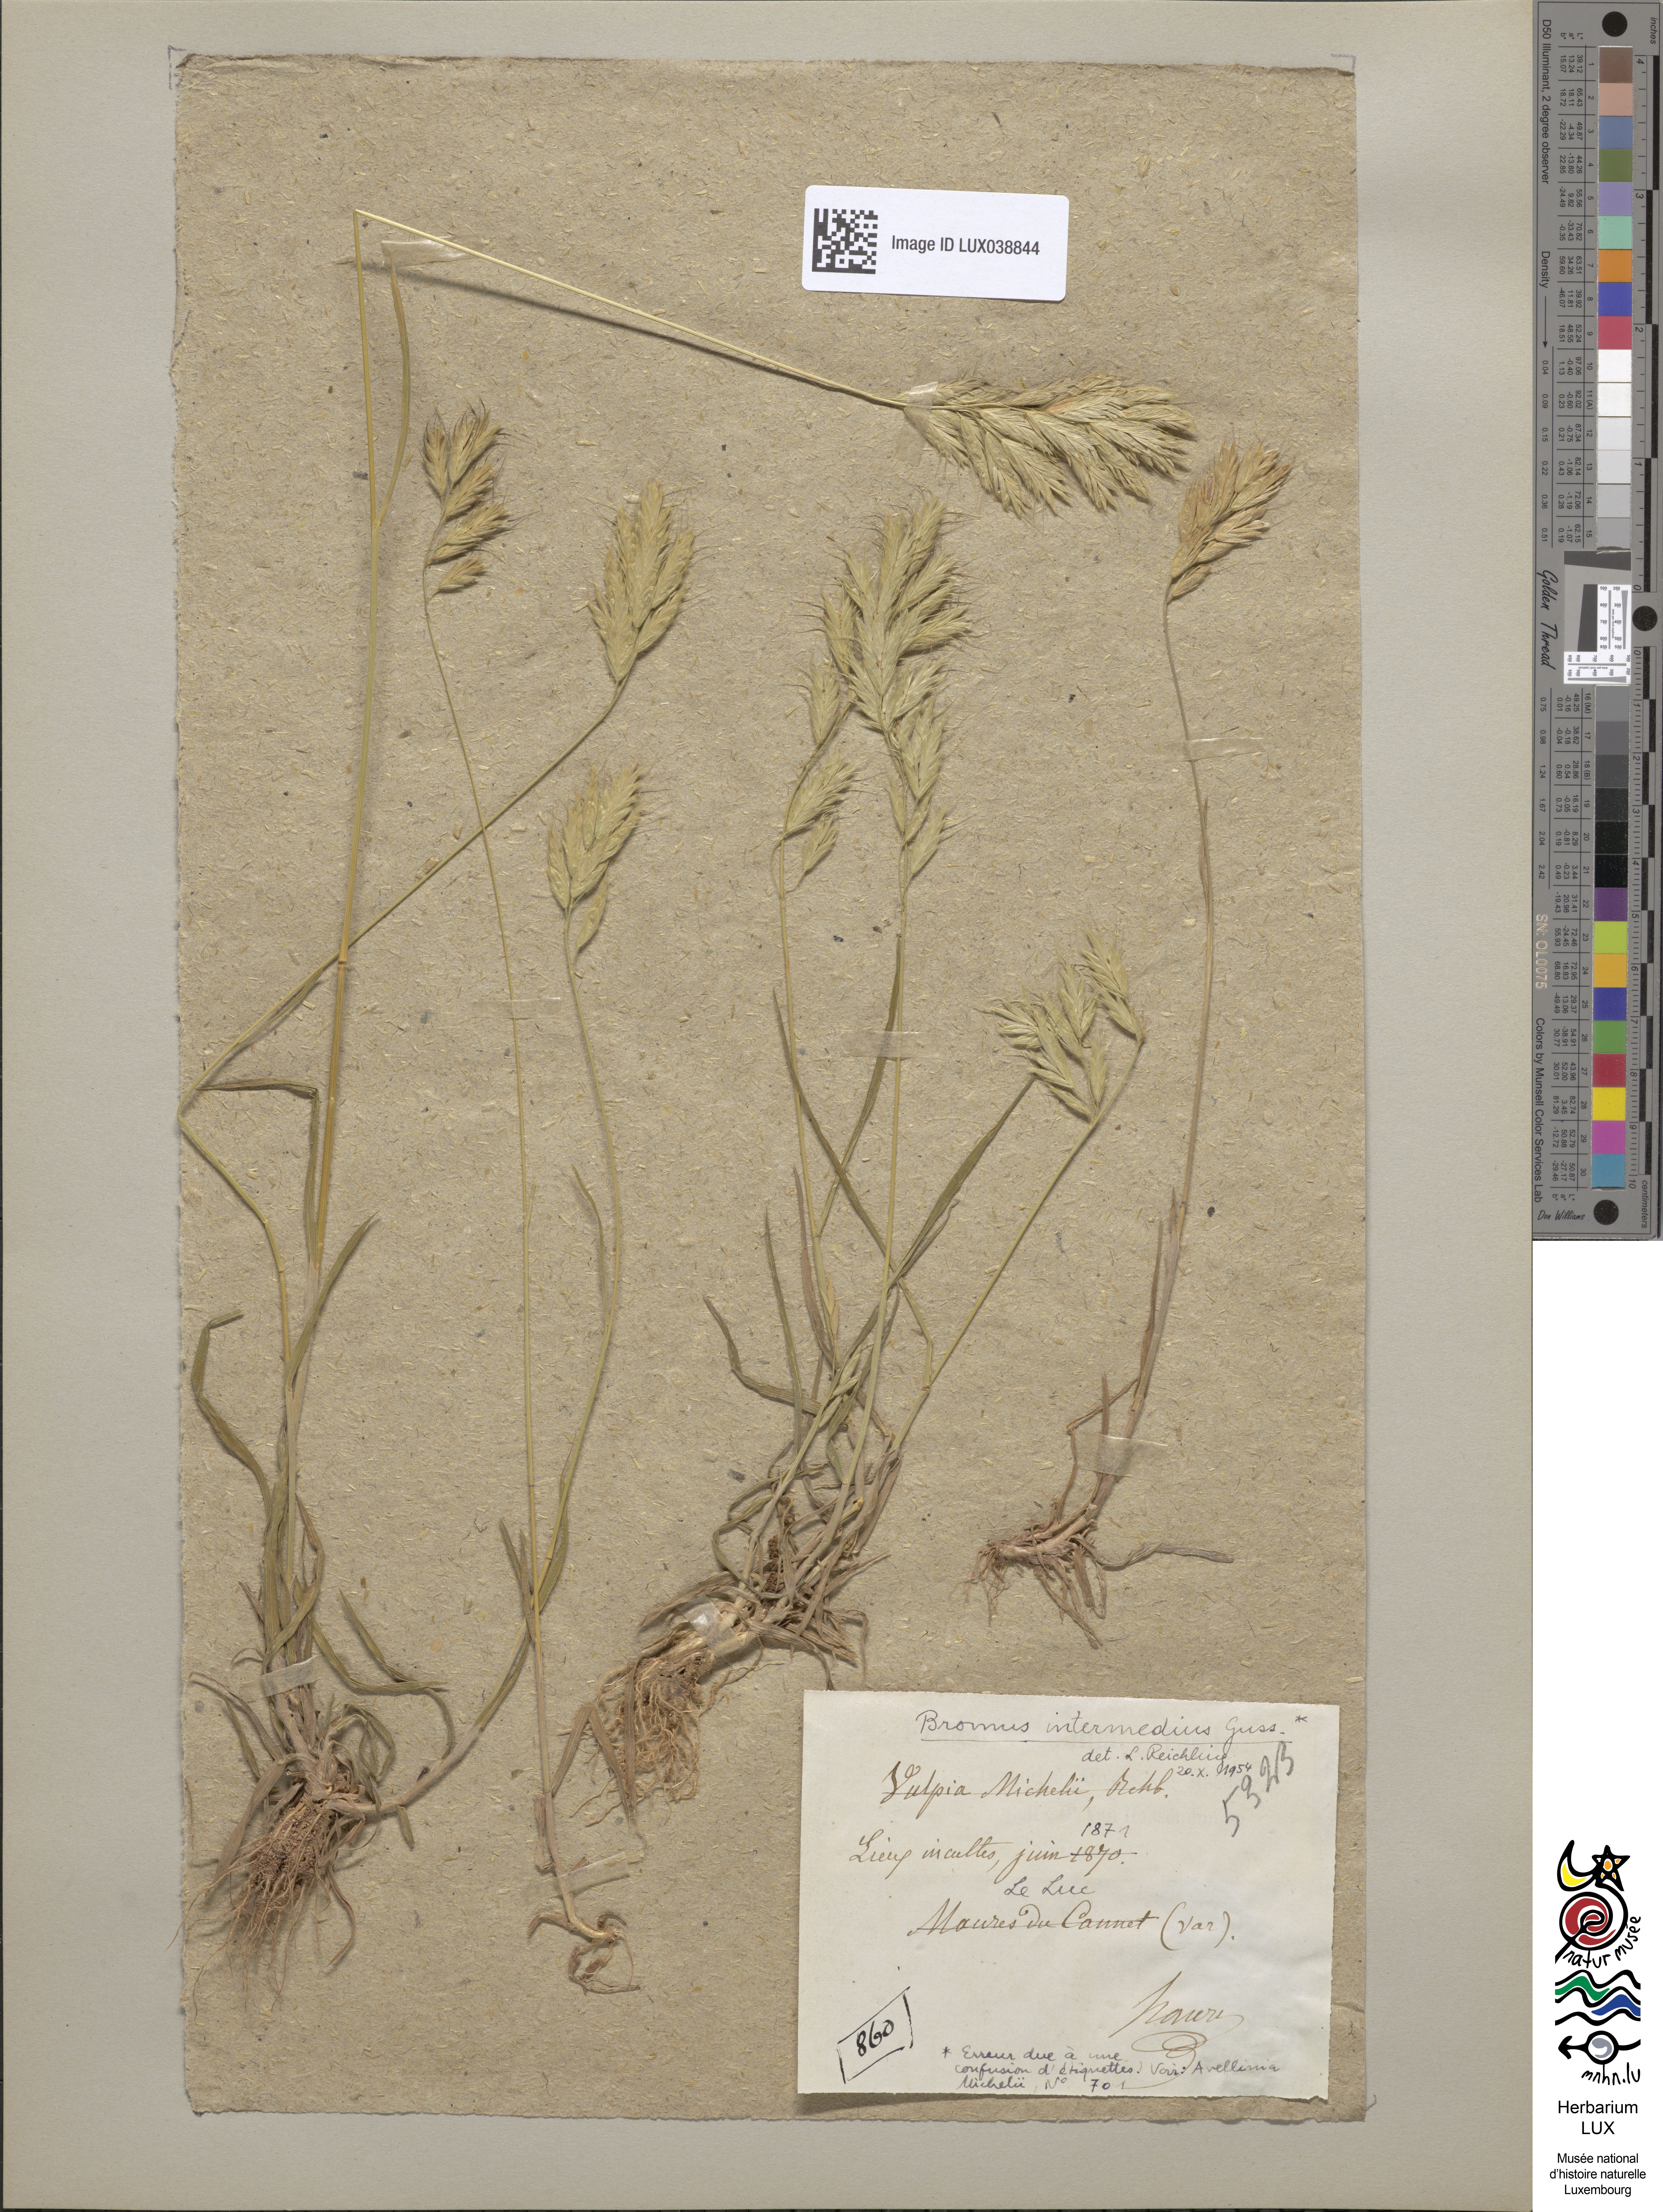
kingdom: Plantae
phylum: Tracheophyta
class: Liliopsida
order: Poales
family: Poaceae
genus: Bromus
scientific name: Bromus intermedius
